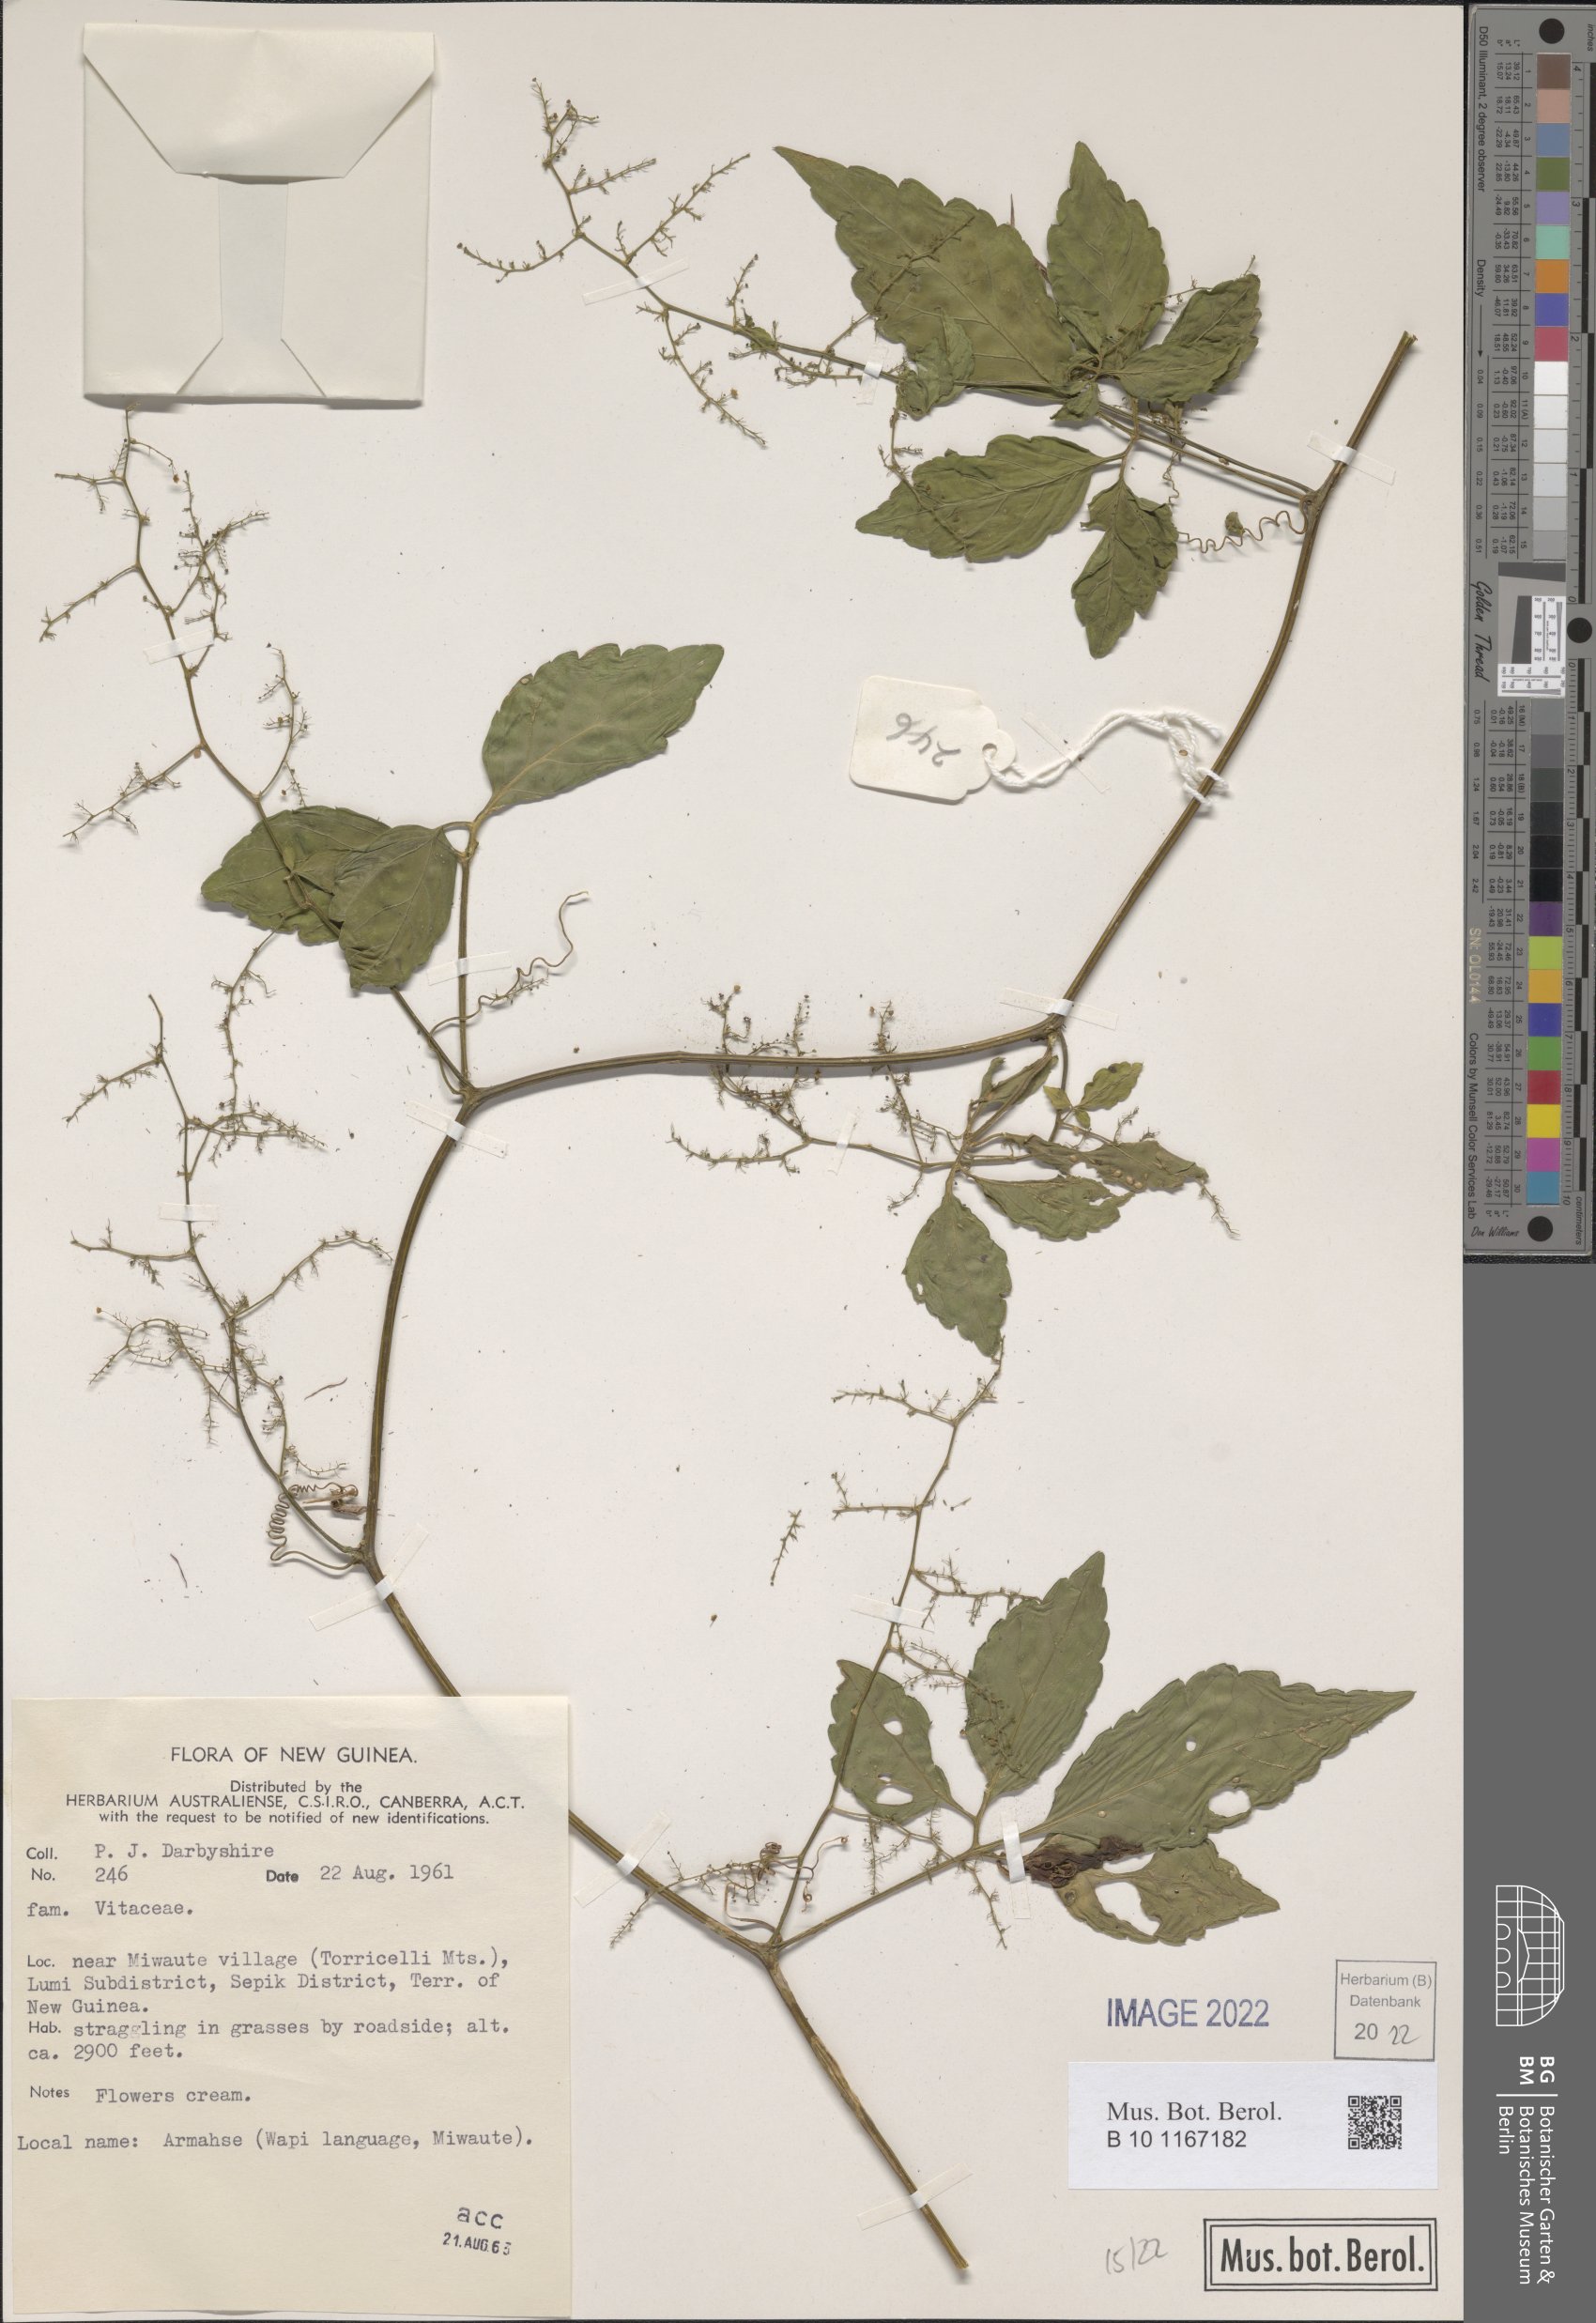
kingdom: Plantae
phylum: Tracheophyta
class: Magnoliopsida
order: Vitales
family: Vitaceae
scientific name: Vitaceae
